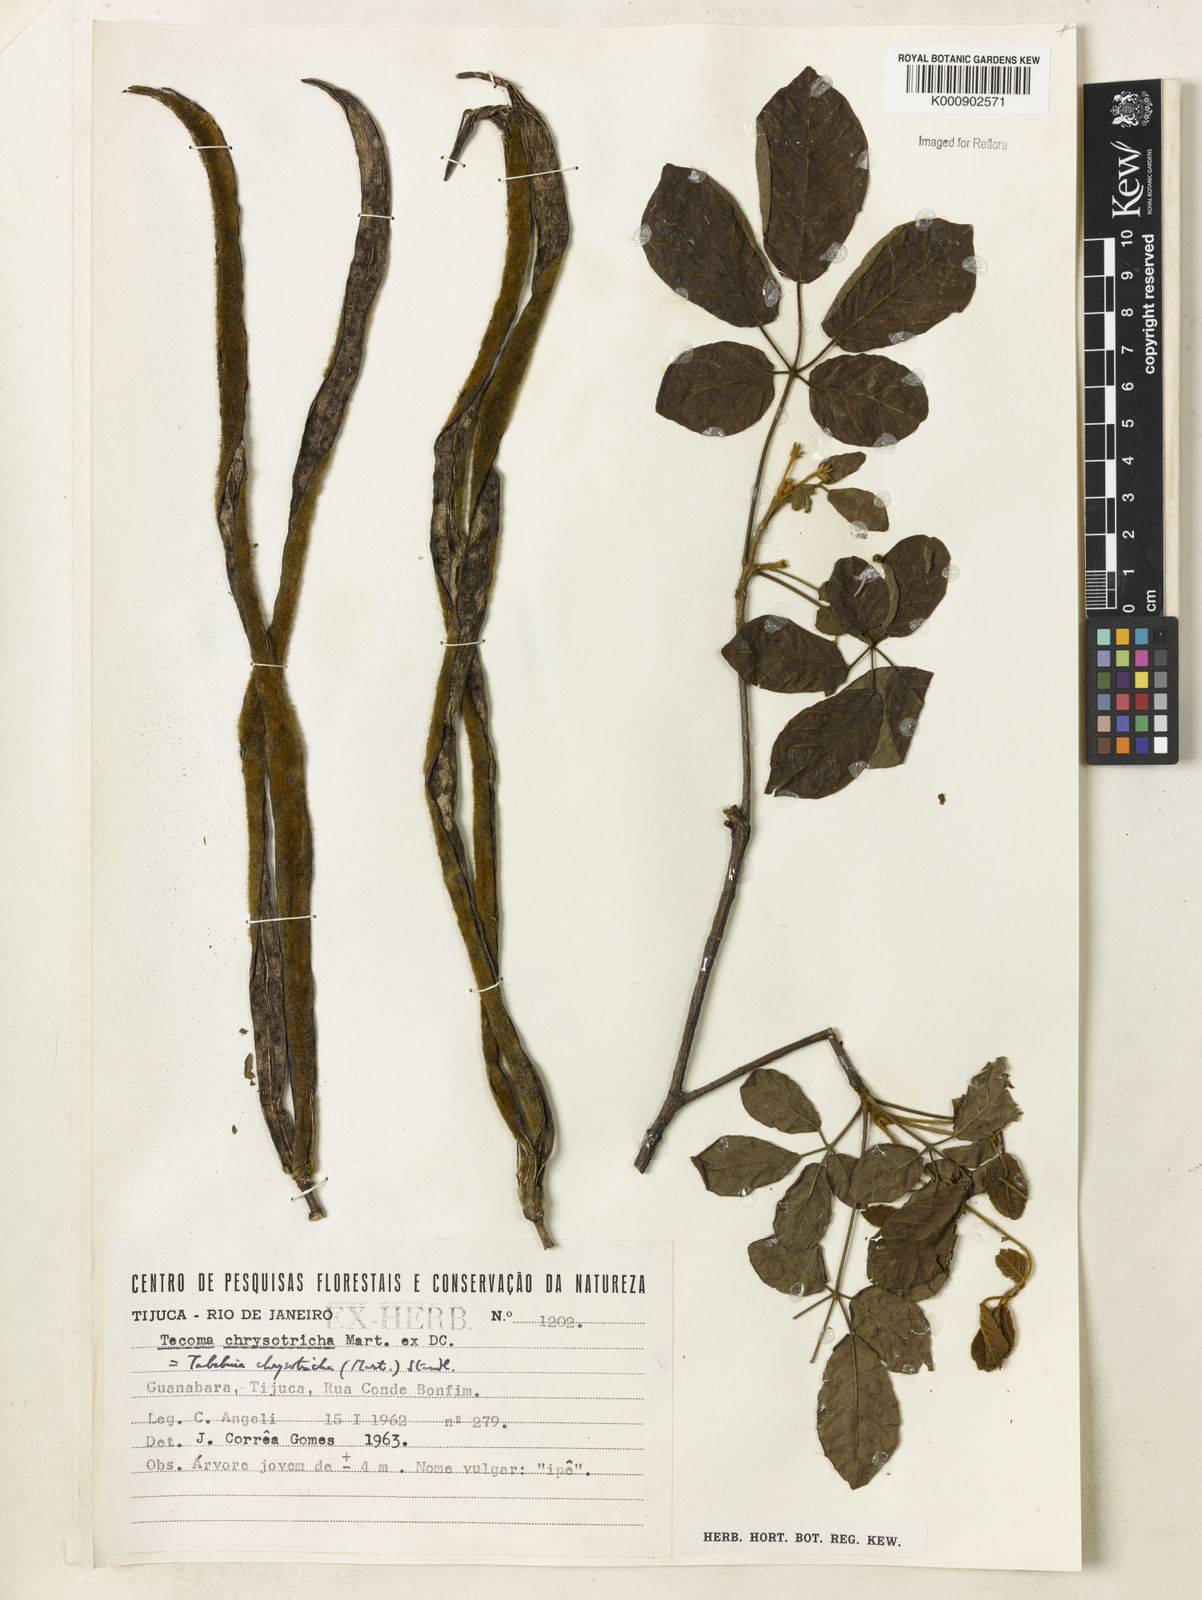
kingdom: Plantae
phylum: Tracheophyta
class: Magnoliopsida
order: Lamiales
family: Bignoniaceae
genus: Handroanthus
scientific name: Handroanthus chrysotrichus
